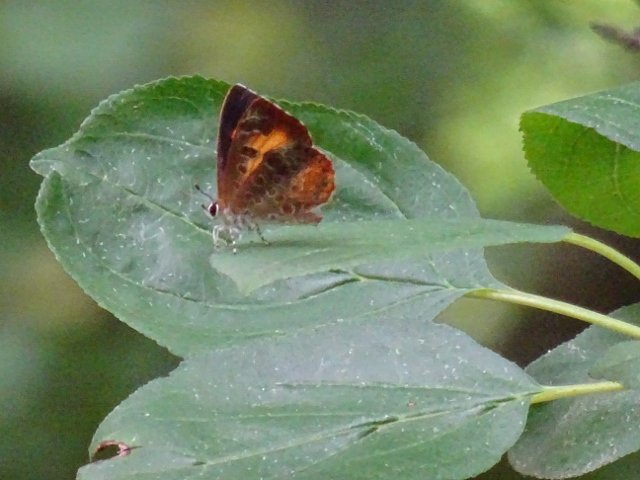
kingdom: Animalia
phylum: Arthropoda
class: Insecta
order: Lepidoptera
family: Lycaenidae
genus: Feniseca
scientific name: Feniseca tarquinius
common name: Harvester
